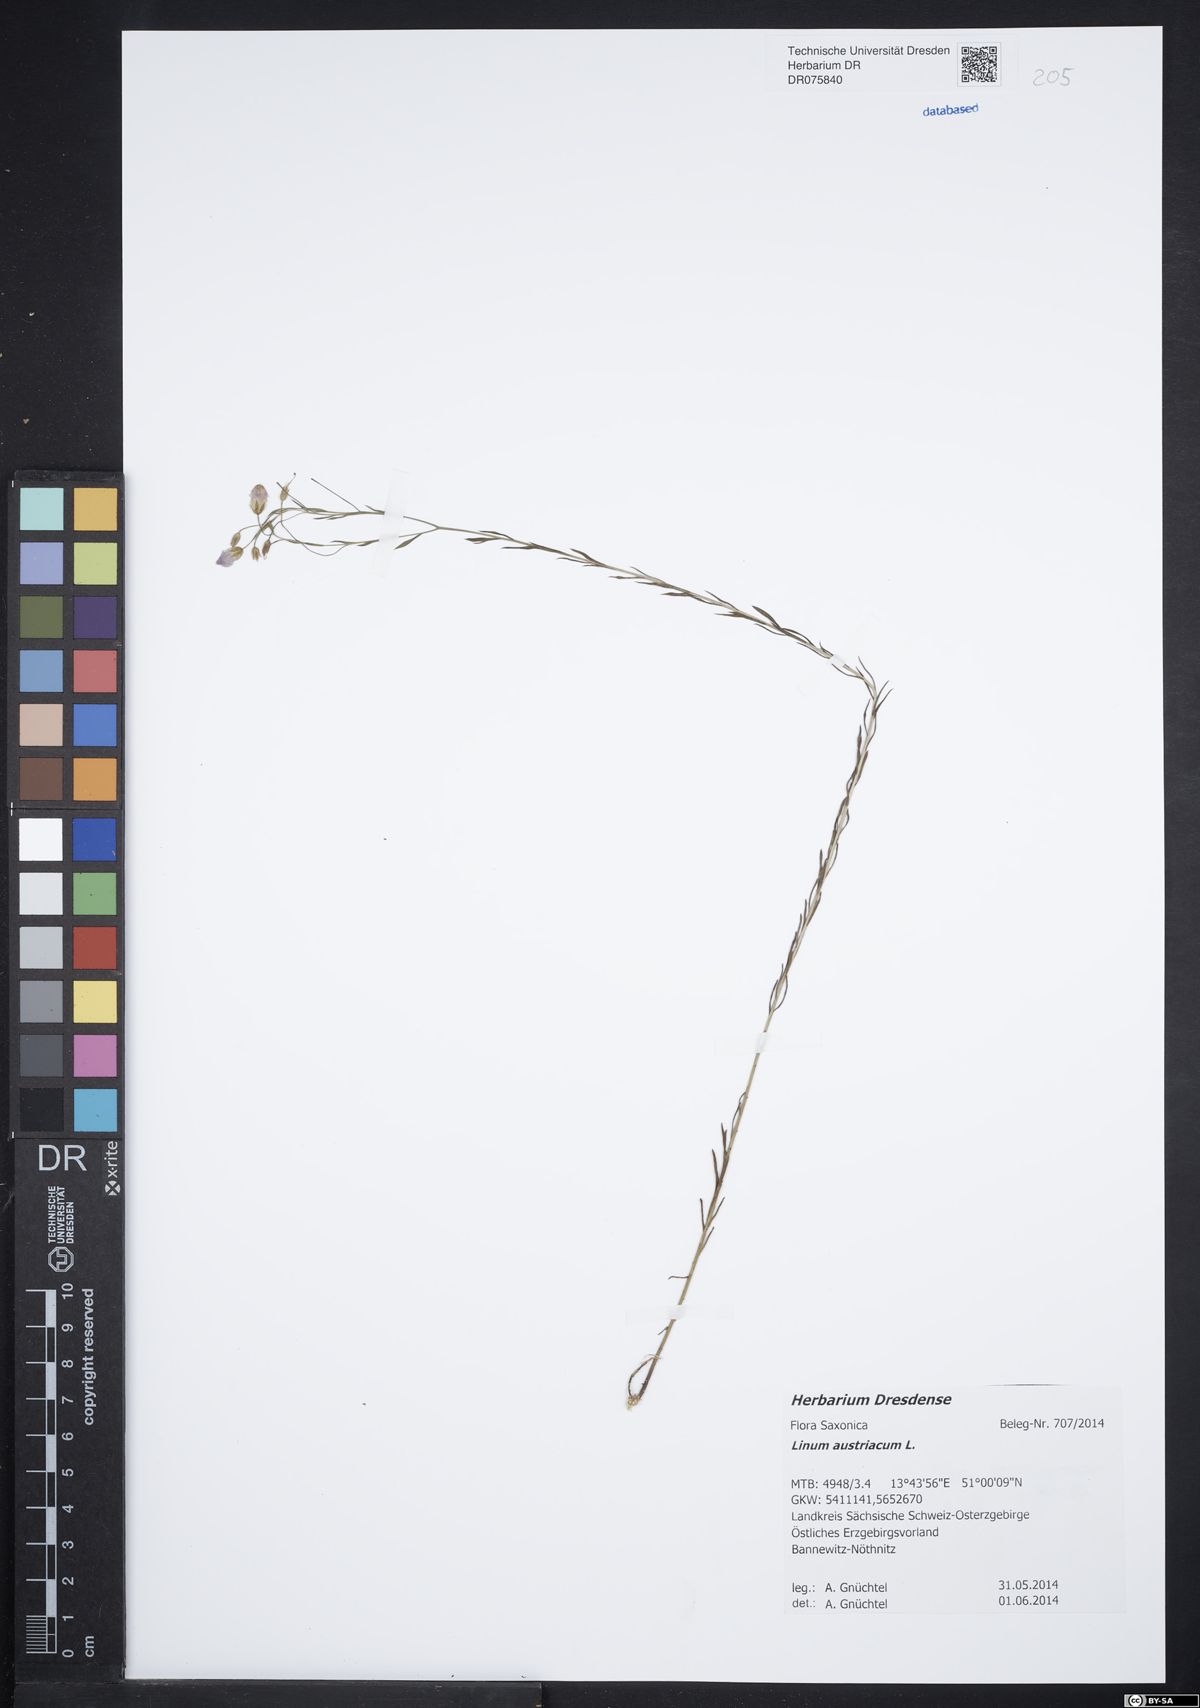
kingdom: Plantae
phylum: Tracheophyta
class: Magnoliopsida
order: Malpighiales
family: Linaceae
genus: Linum
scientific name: Linum austriacum
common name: Austrian flax
